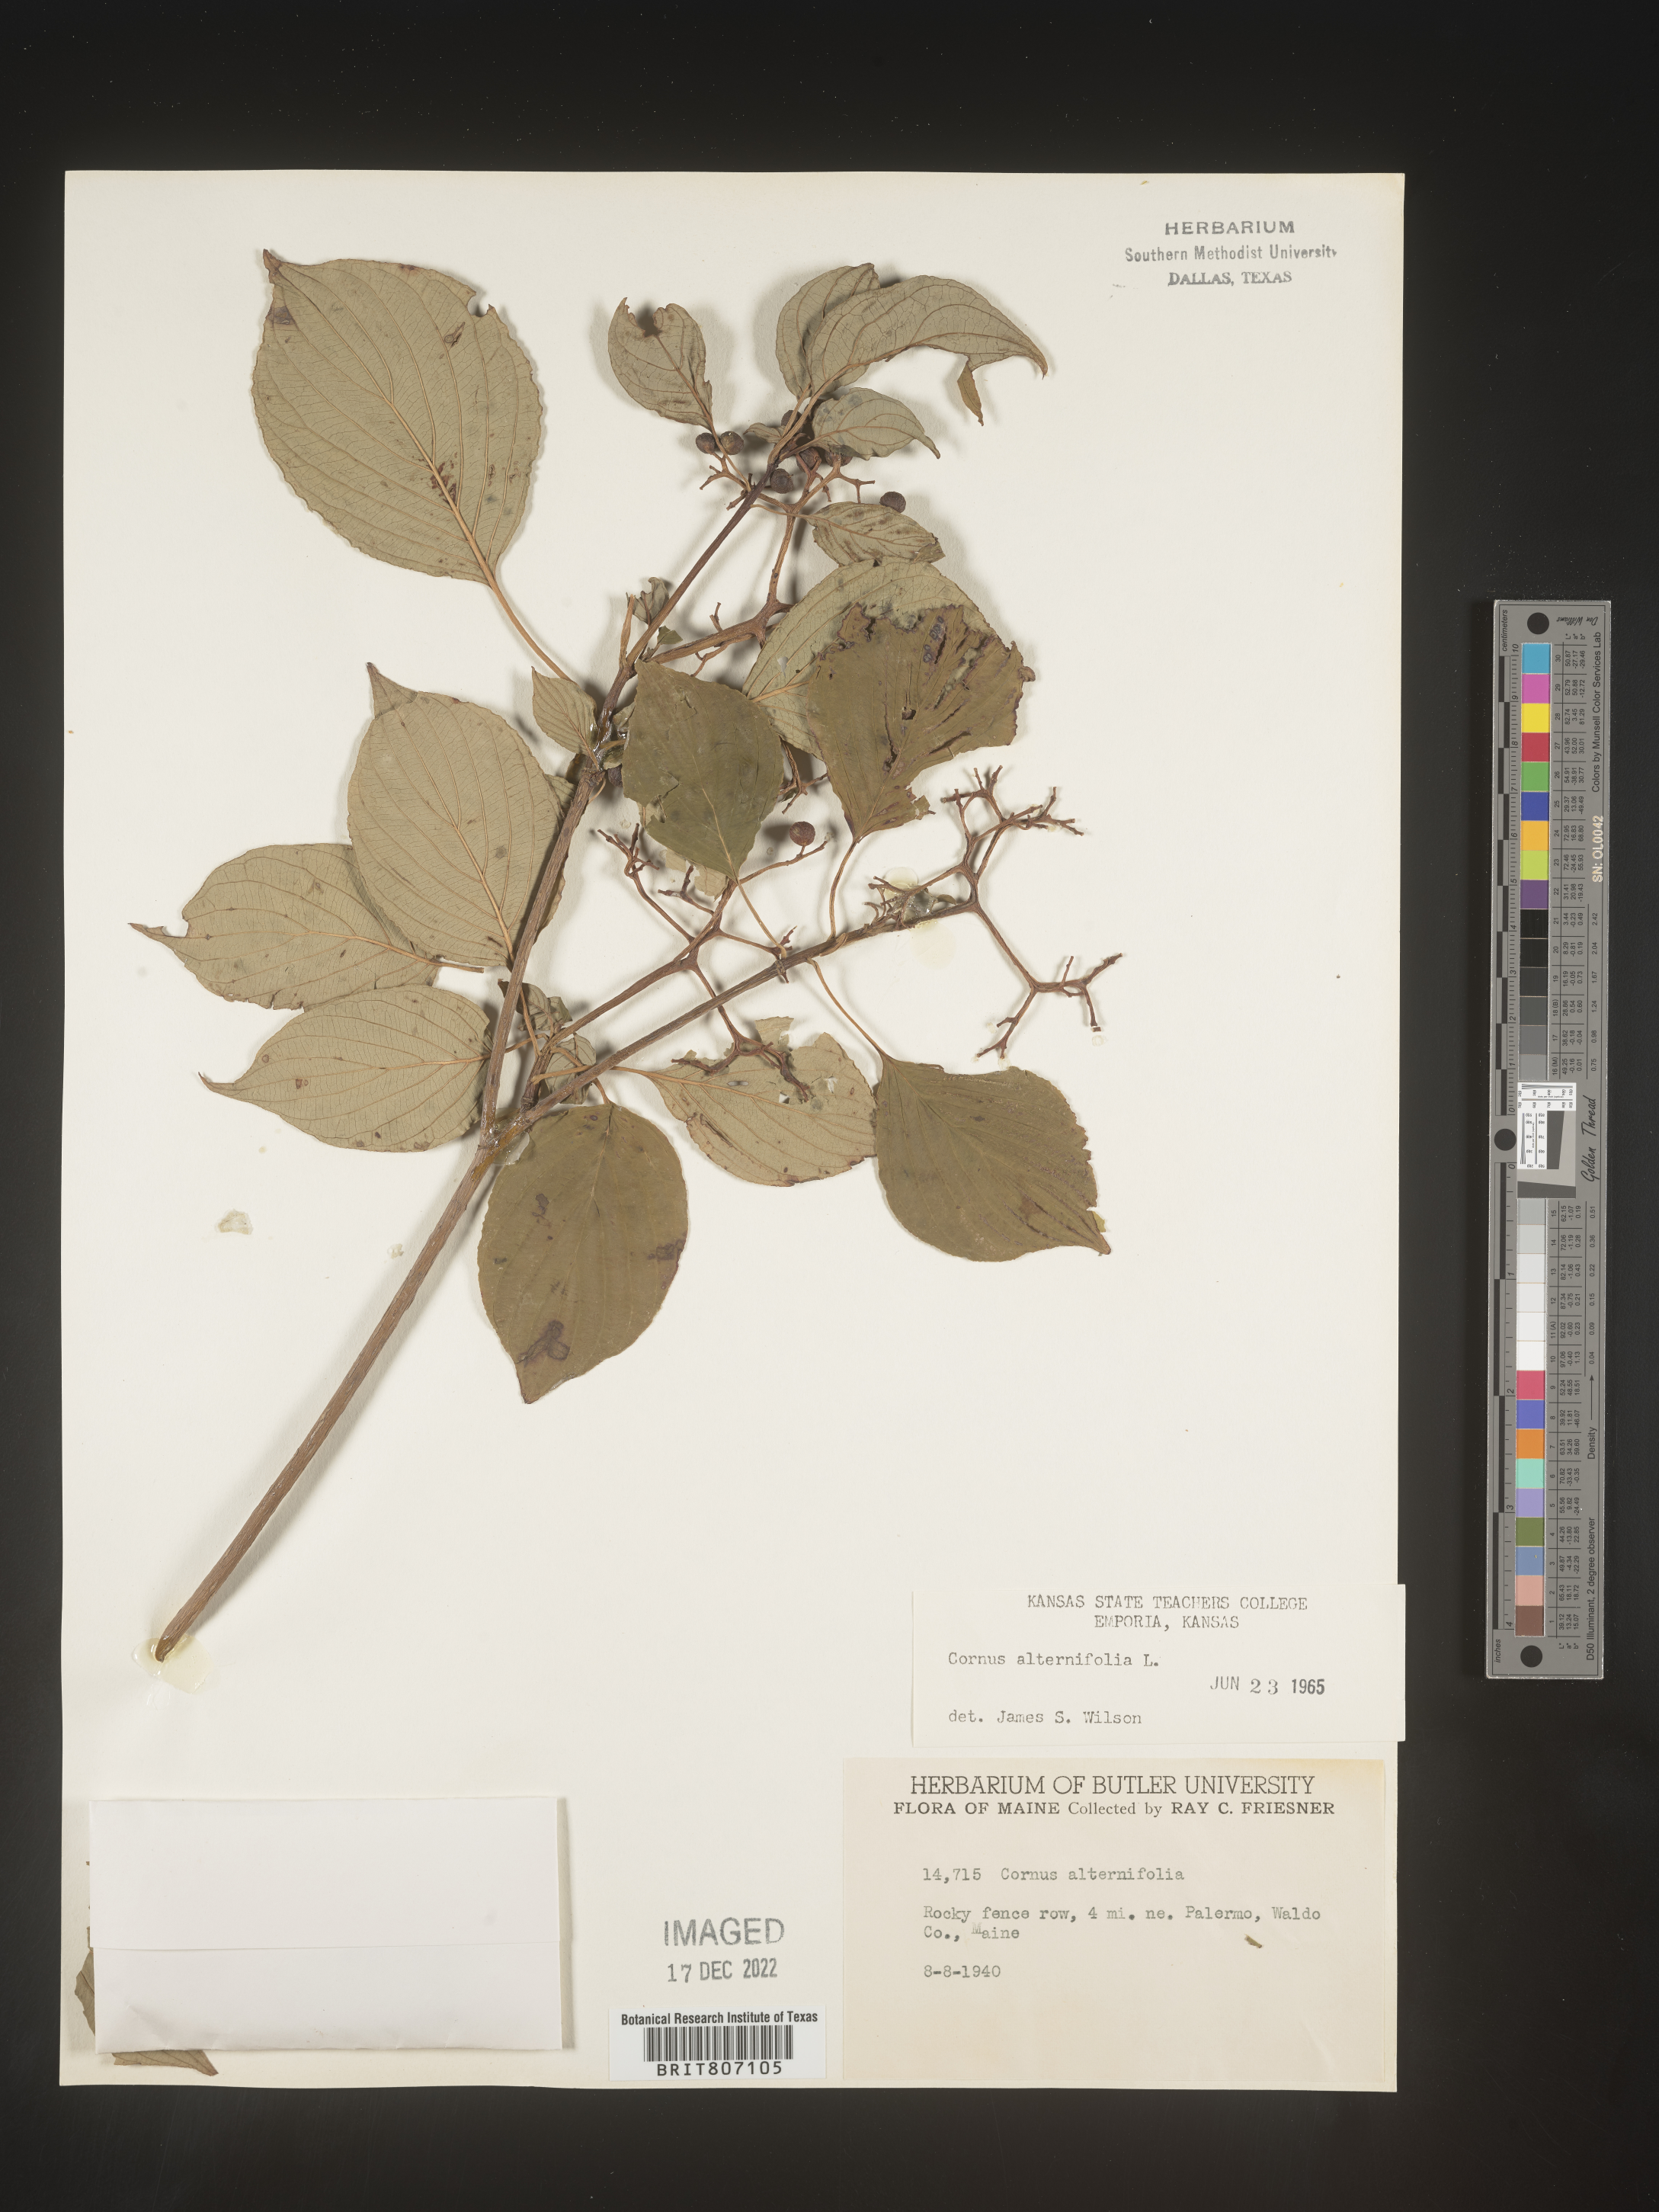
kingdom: Plantae
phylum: Tracheophyta
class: Magnoliopsida
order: Cornales
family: Cornaceae
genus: Cornus
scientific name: Cornus alternifolia
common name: Pagoda dogwood
